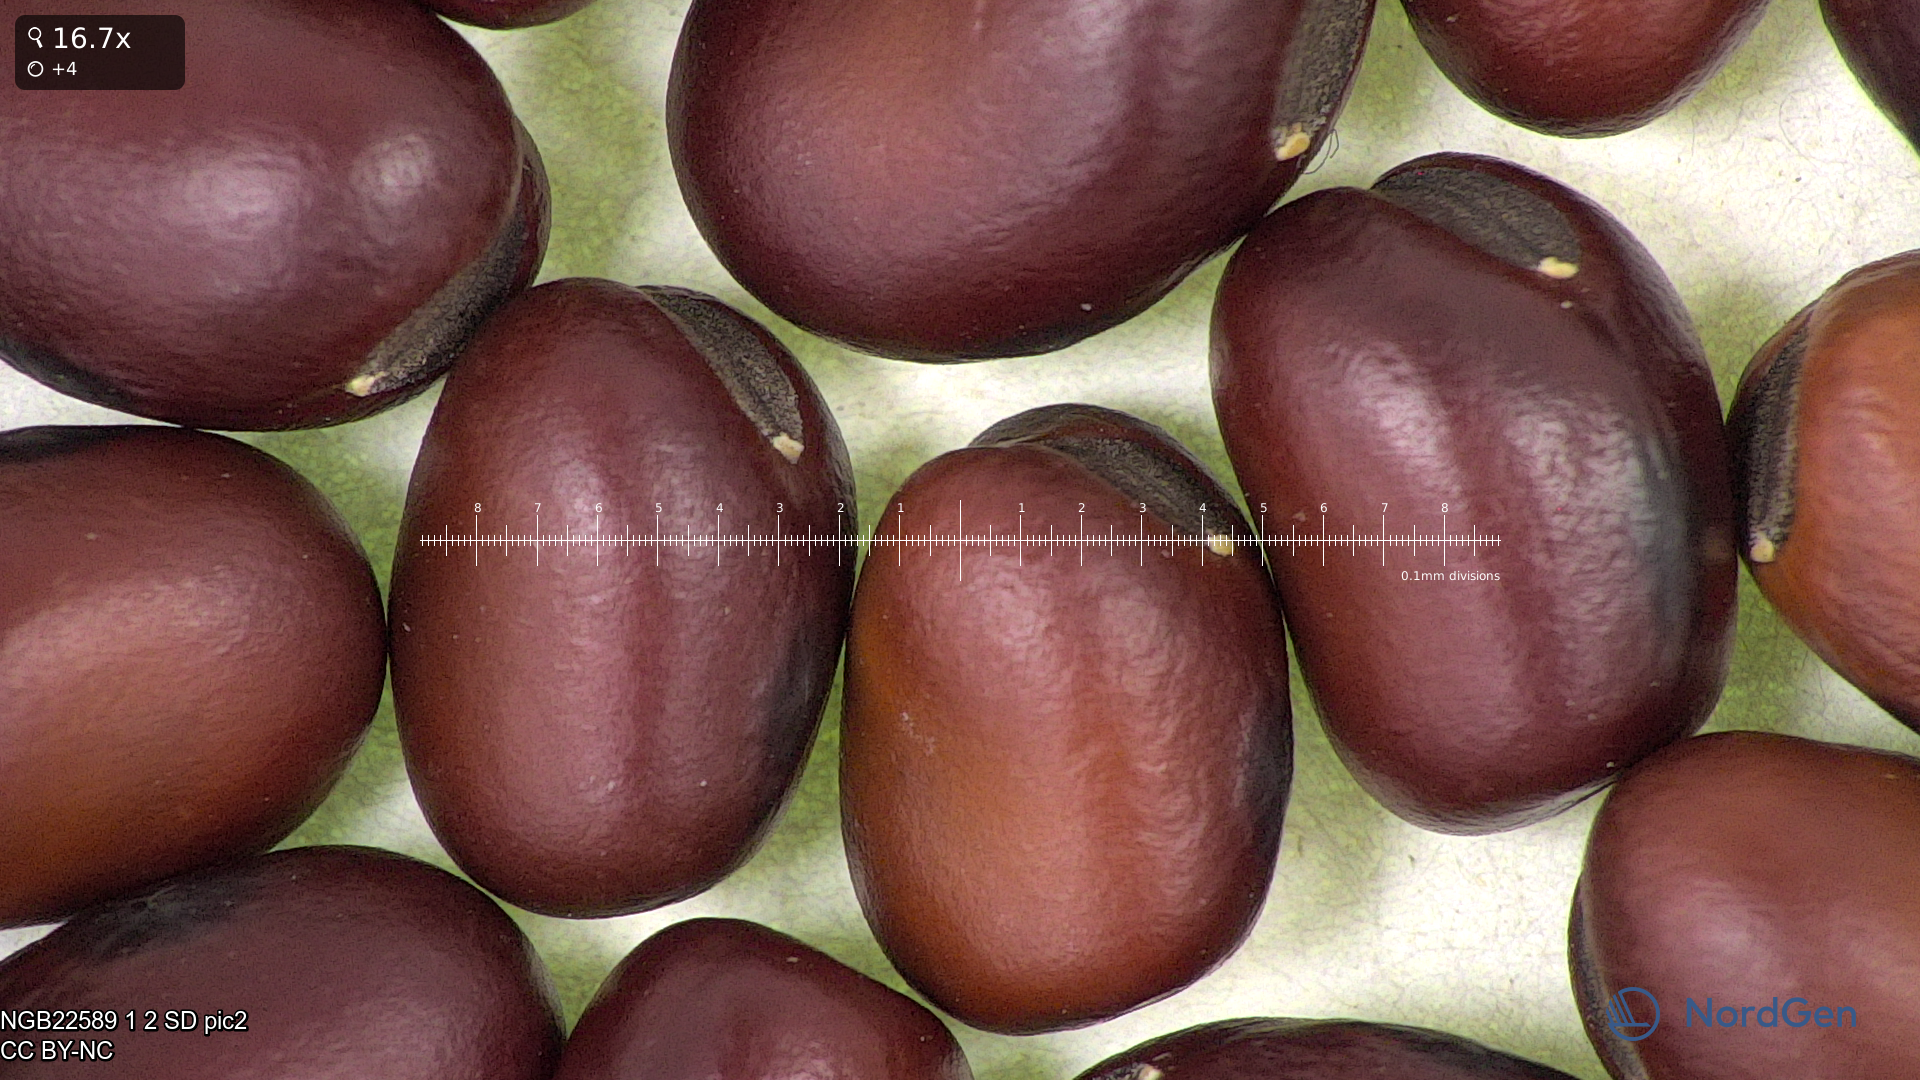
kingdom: Plantae
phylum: Tracheophyta
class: Magnoliopsida
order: Fabales
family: Fabaceae
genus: Vicia
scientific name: Vicia faba
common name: Broad bean
